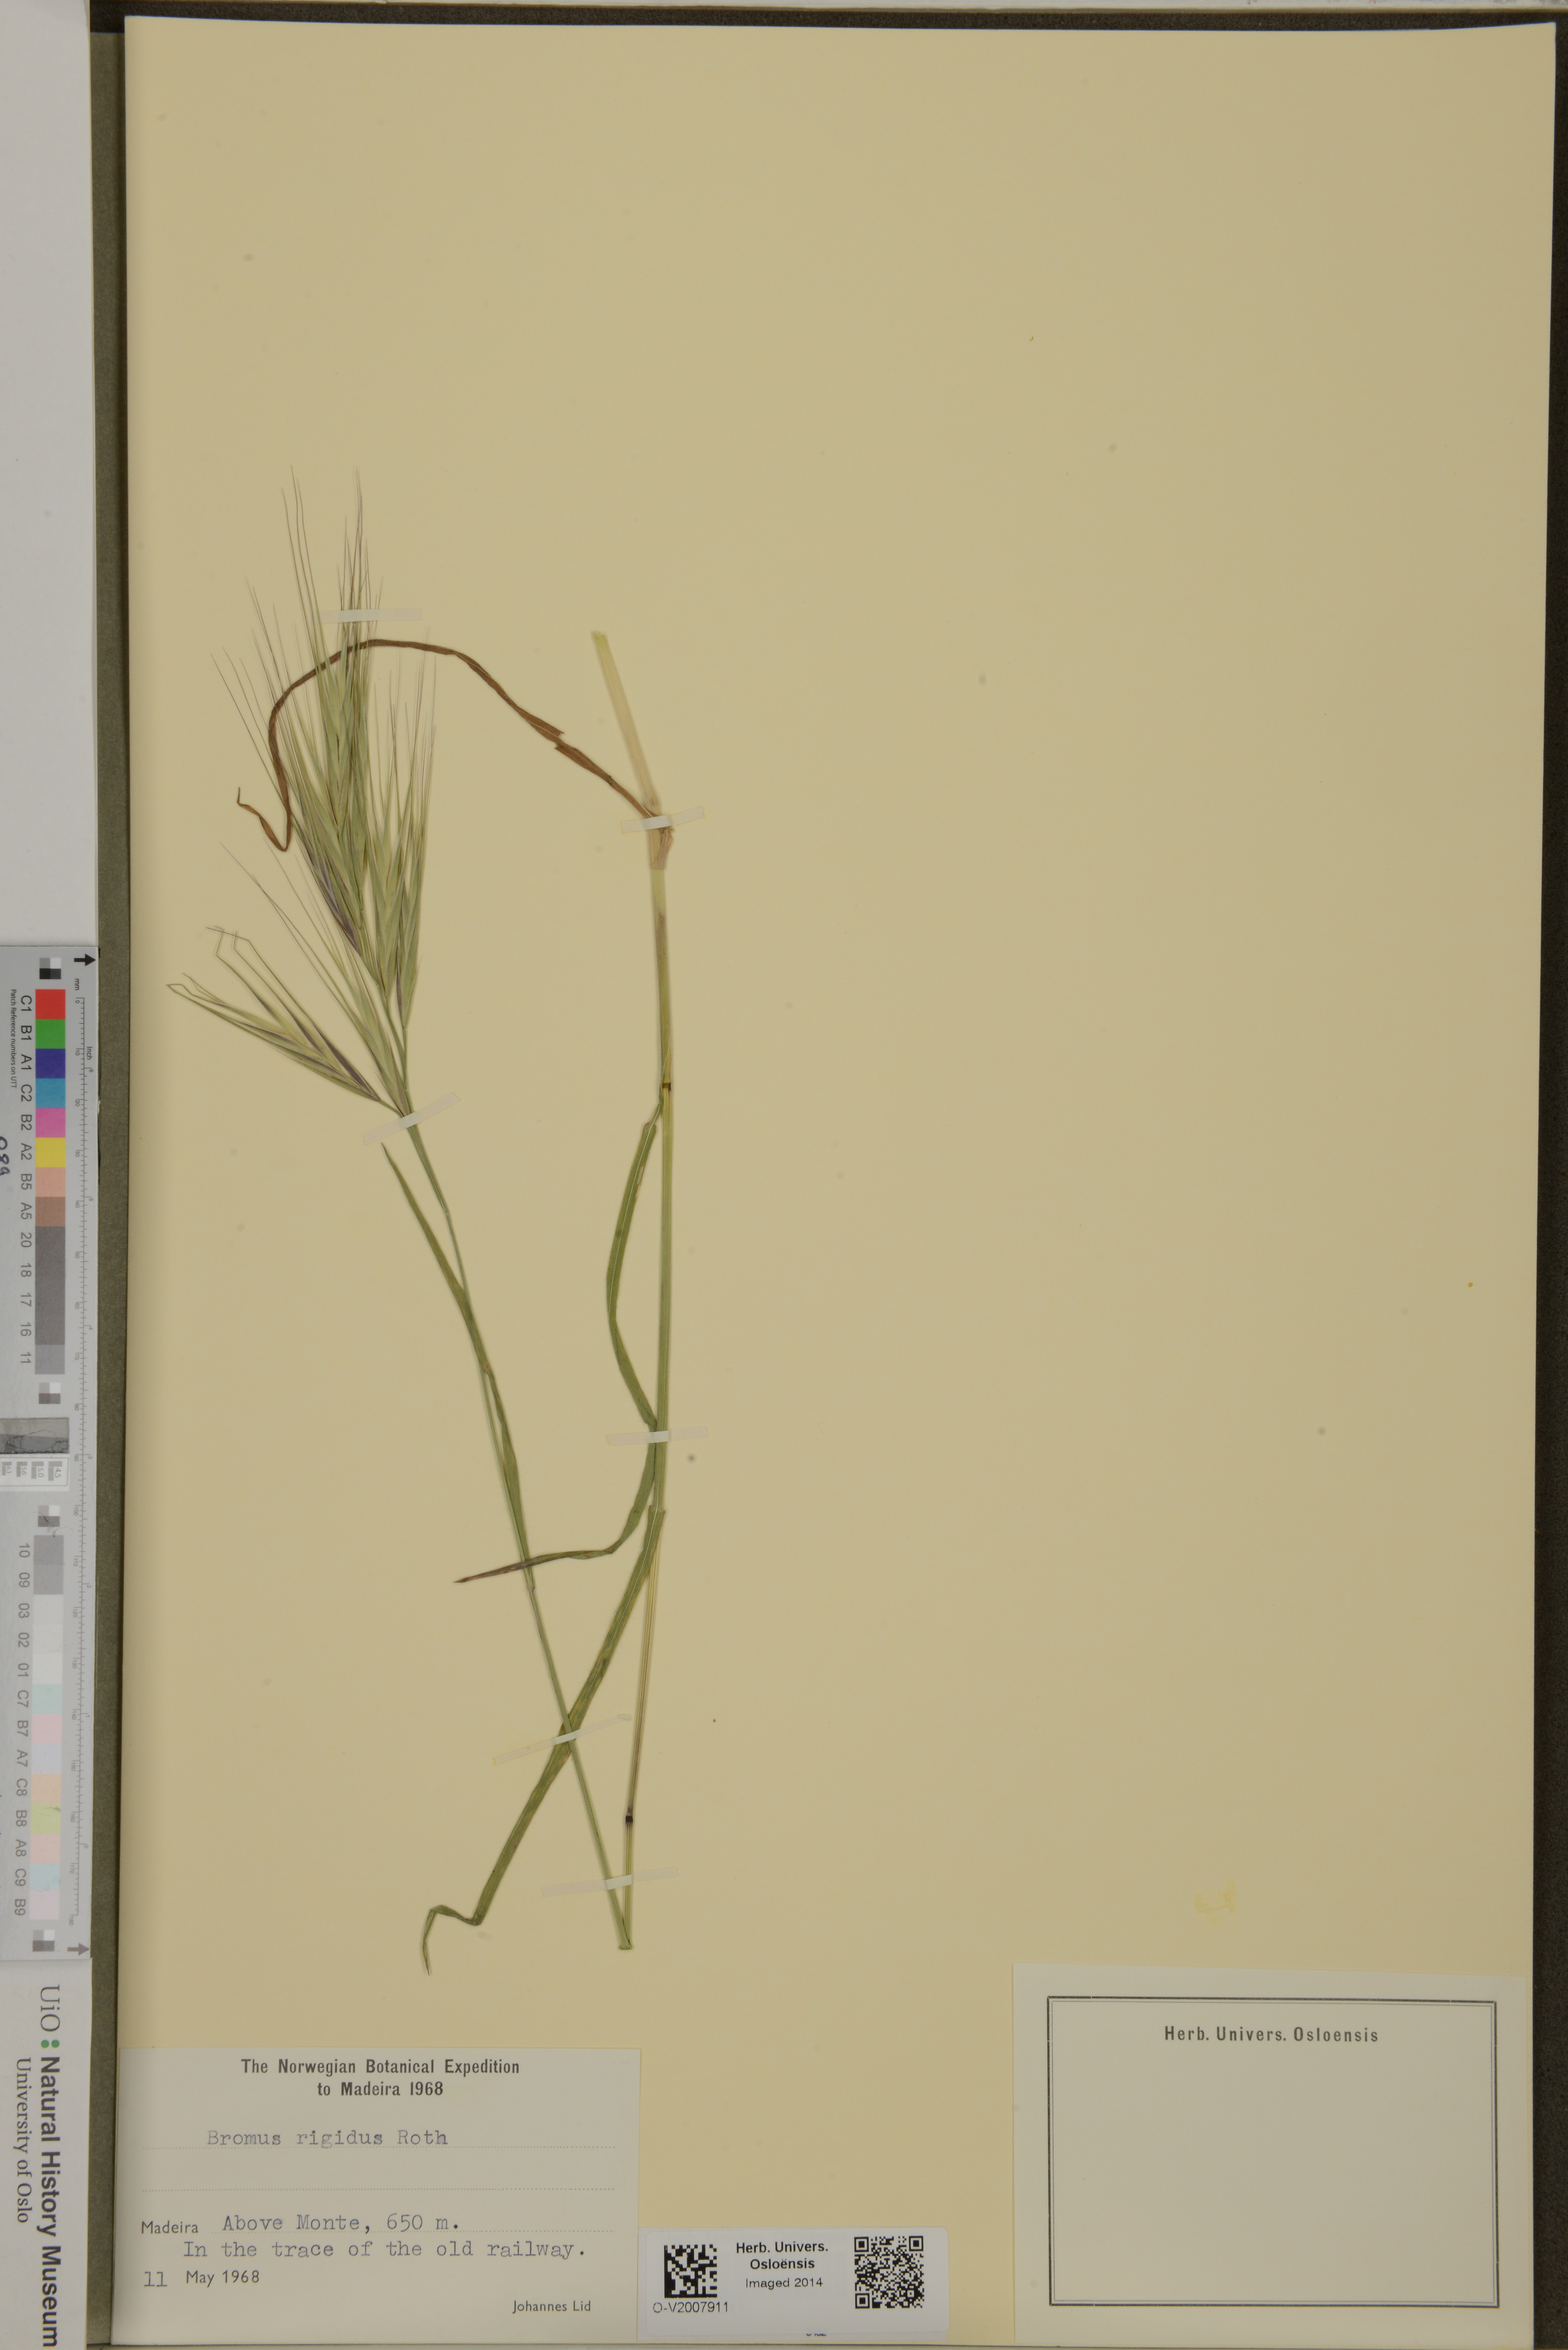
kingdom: Plantae
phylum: Tracheophyta
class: Liliopsida
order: Poales
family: Poaceae
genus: Bromus
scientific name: Bromus rigidus
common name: Ripgut brome
